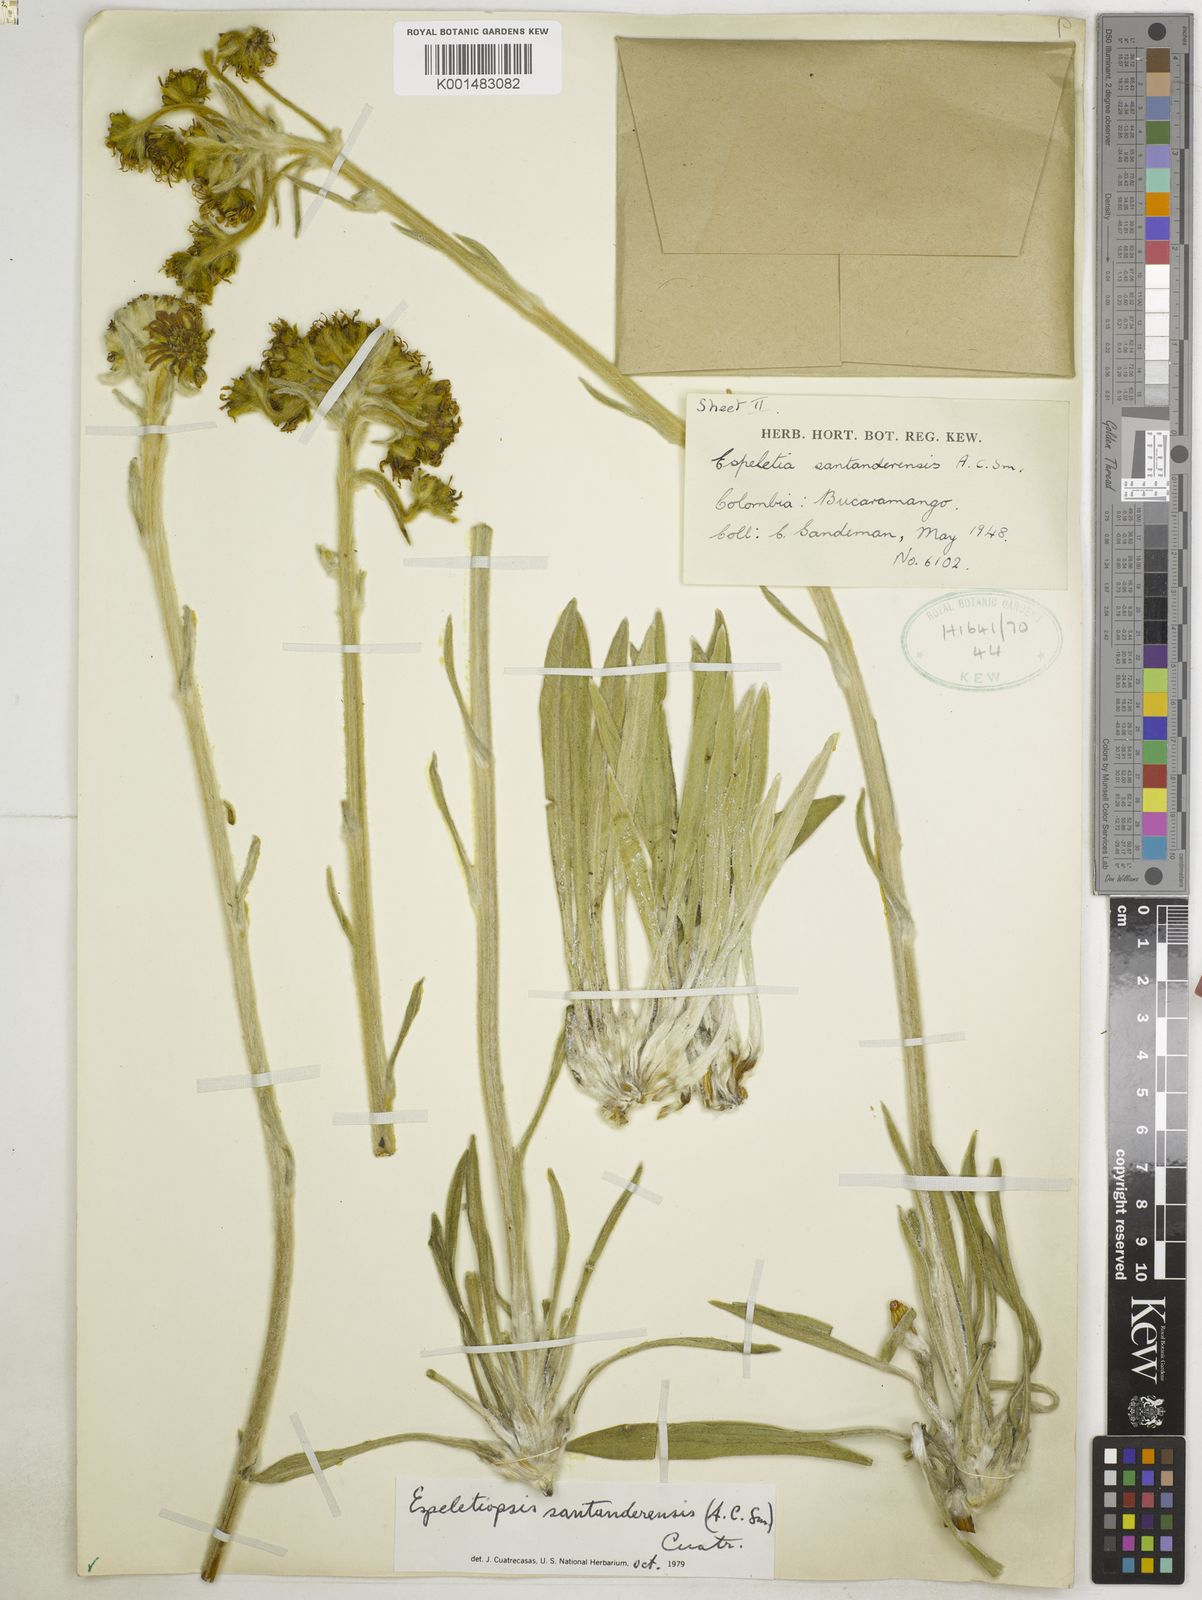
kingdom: Plantae
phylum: Tracheophyta
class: Magnoliopsida
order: Asterales
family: Asteraceae
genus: Espeletia
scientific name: Espeletia santanderensis
